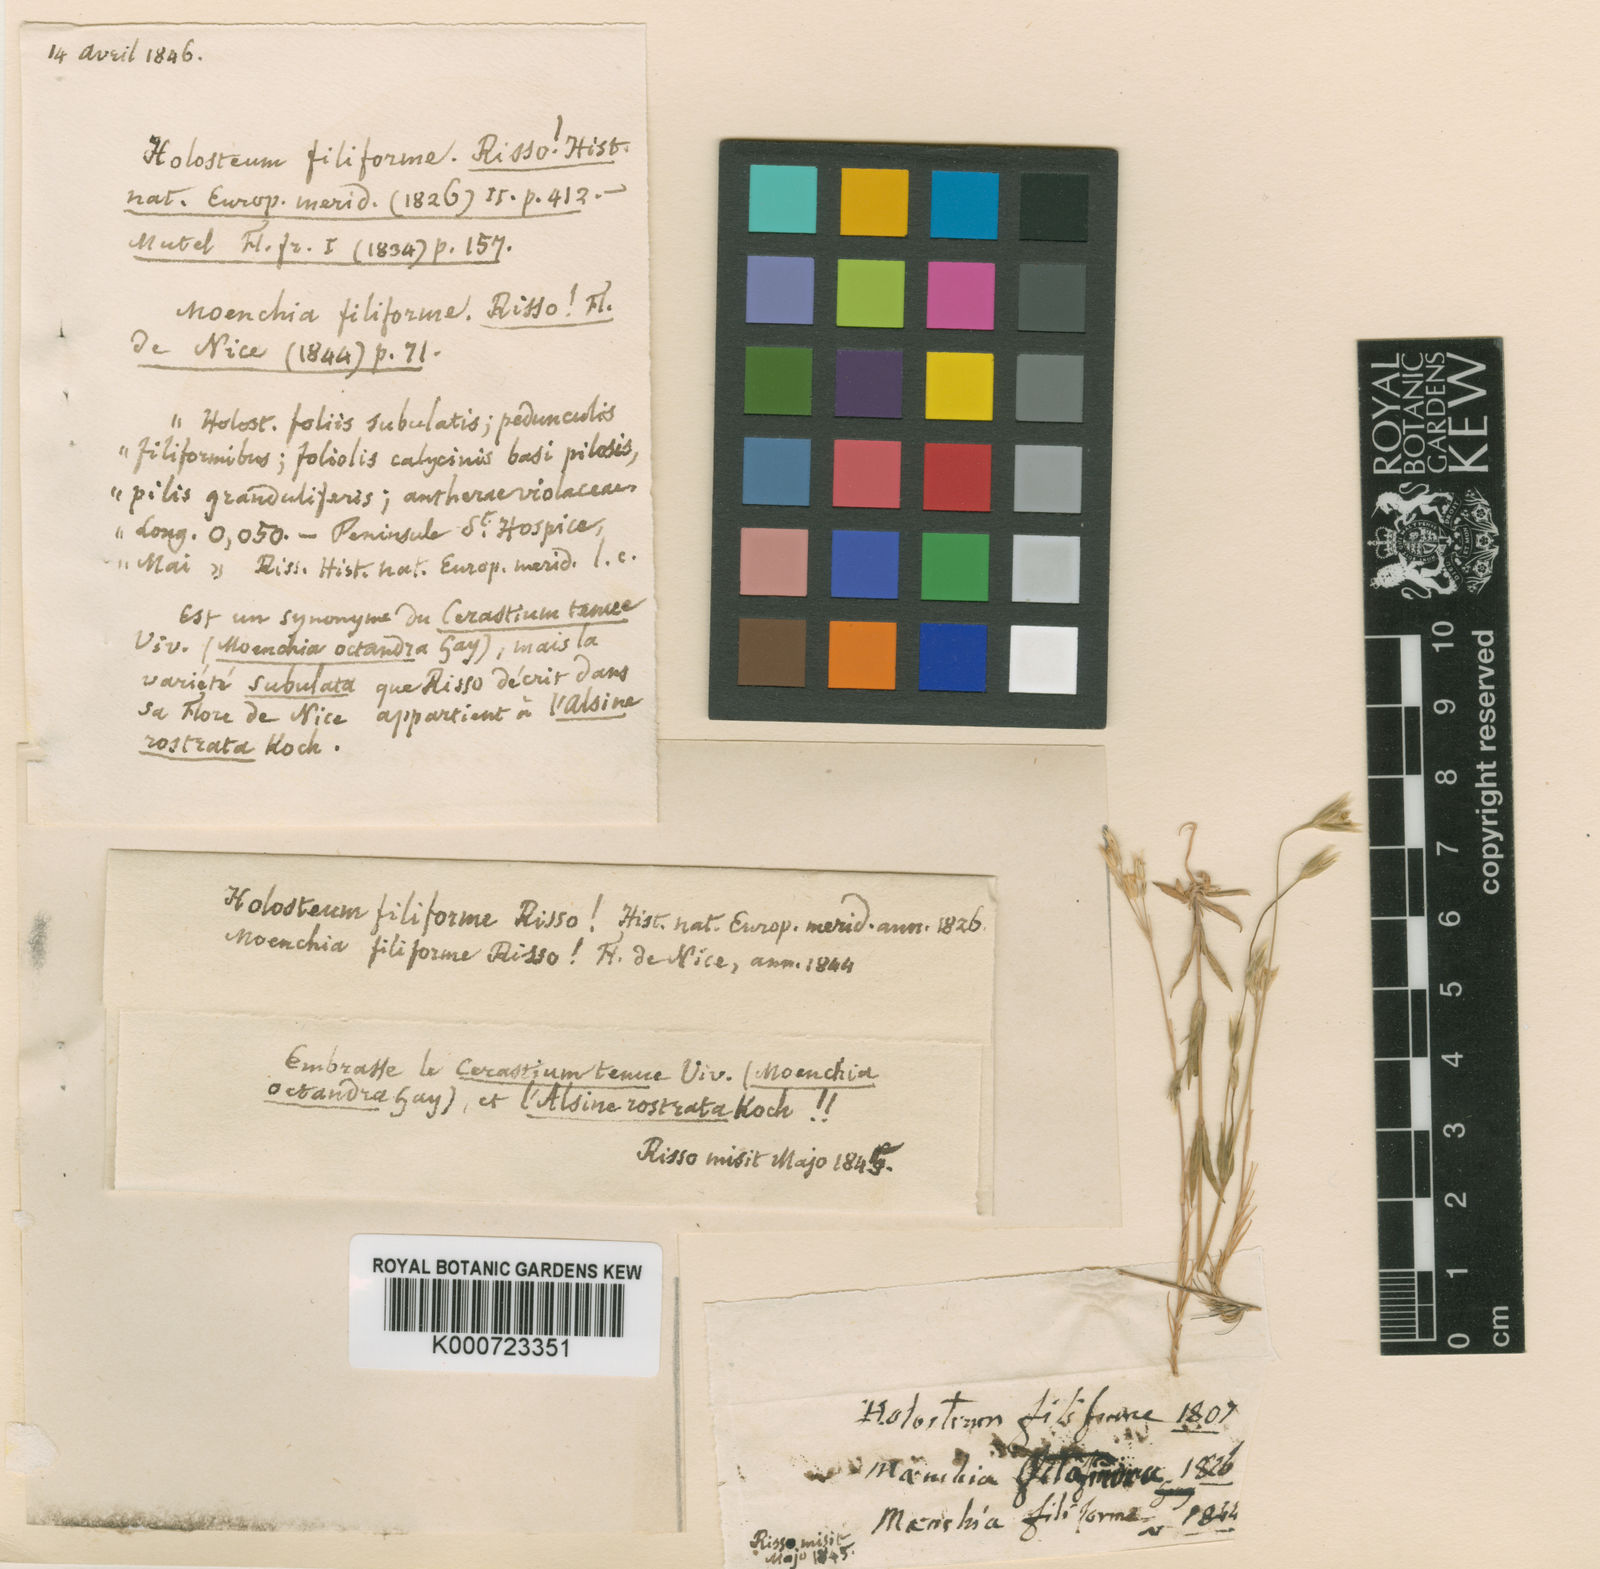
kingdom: Plantae
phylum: Tracheophyta
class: Magnoliopsida
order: Caryophyllales
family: Caryophyllaceae
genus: Cerastium
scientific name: Cerastium glomeratum
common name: Sticky chickweed
